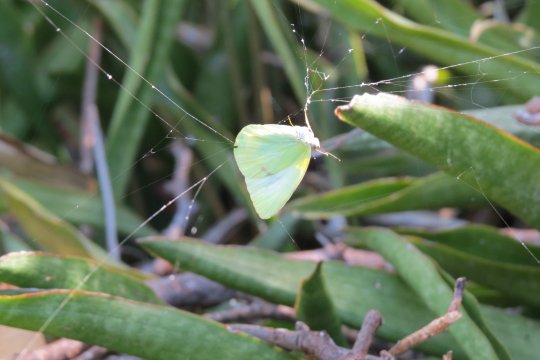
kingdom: Animalia
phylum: Arthropoda
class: Insecta
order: Lepidoptera
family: Pieridae
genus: Kricogonia
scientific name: Kricogonia lyside
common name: Lyside Sulphur
